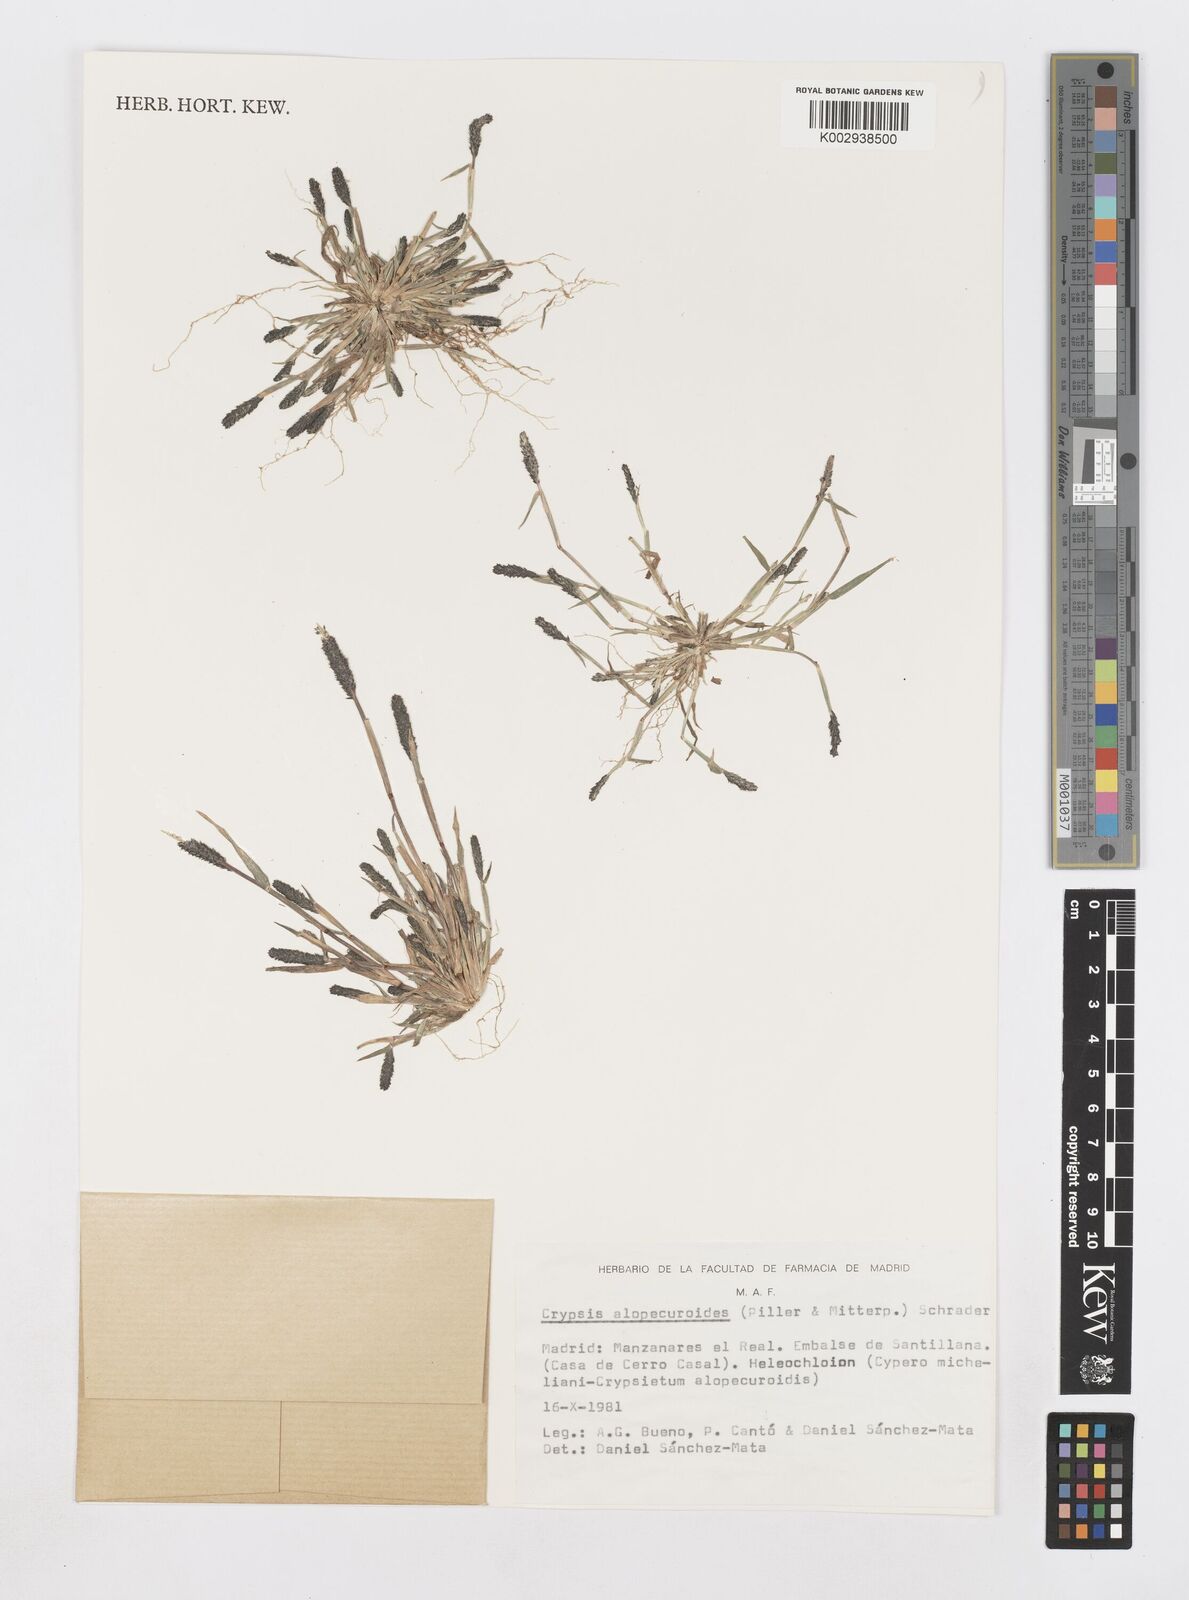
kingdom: Plantae
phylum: Tracheophyta
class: Liliopsida
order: Poales
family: Poaceae
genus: Sporobolus
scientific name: Sporobolus alopecuroides
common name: Foxtail pricklegrass
